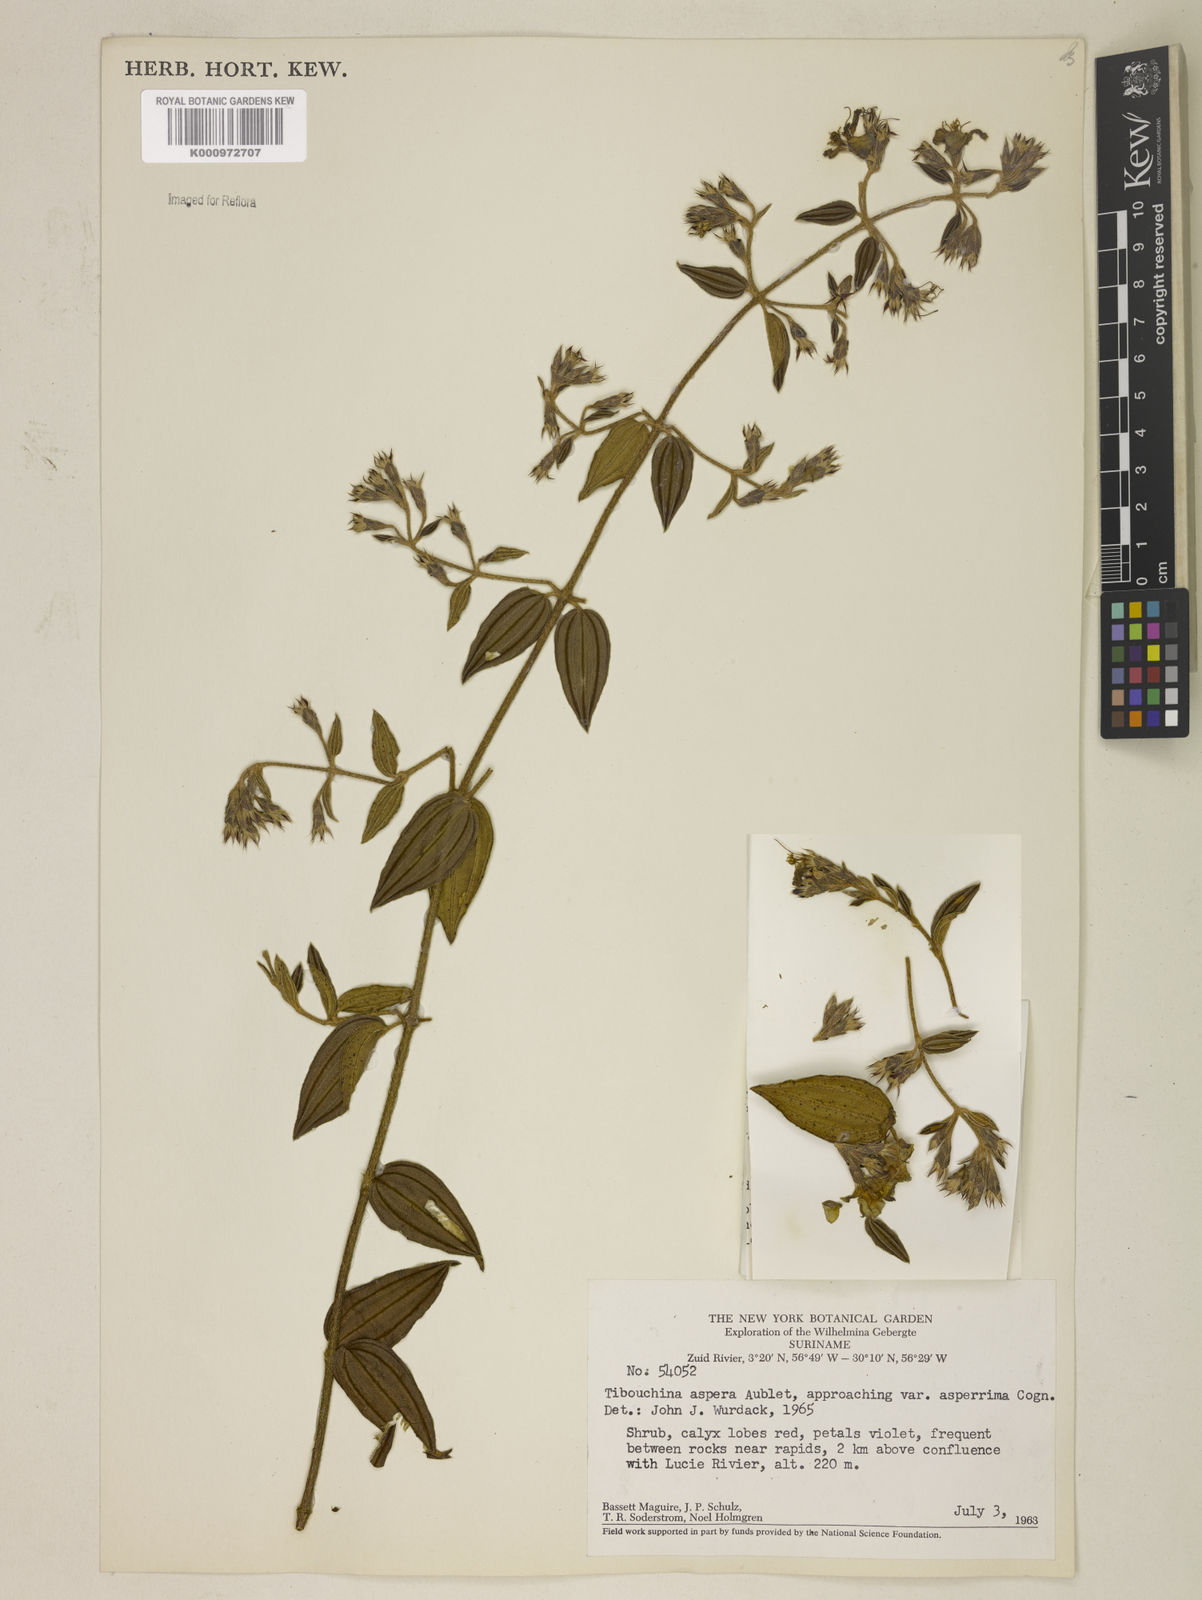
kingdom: Plantae
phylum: Tracheophyta
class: Magnoliopsida
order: Myrtales
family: Melastomataceae
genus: Tibouchina
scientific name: Tibouchina aspera
